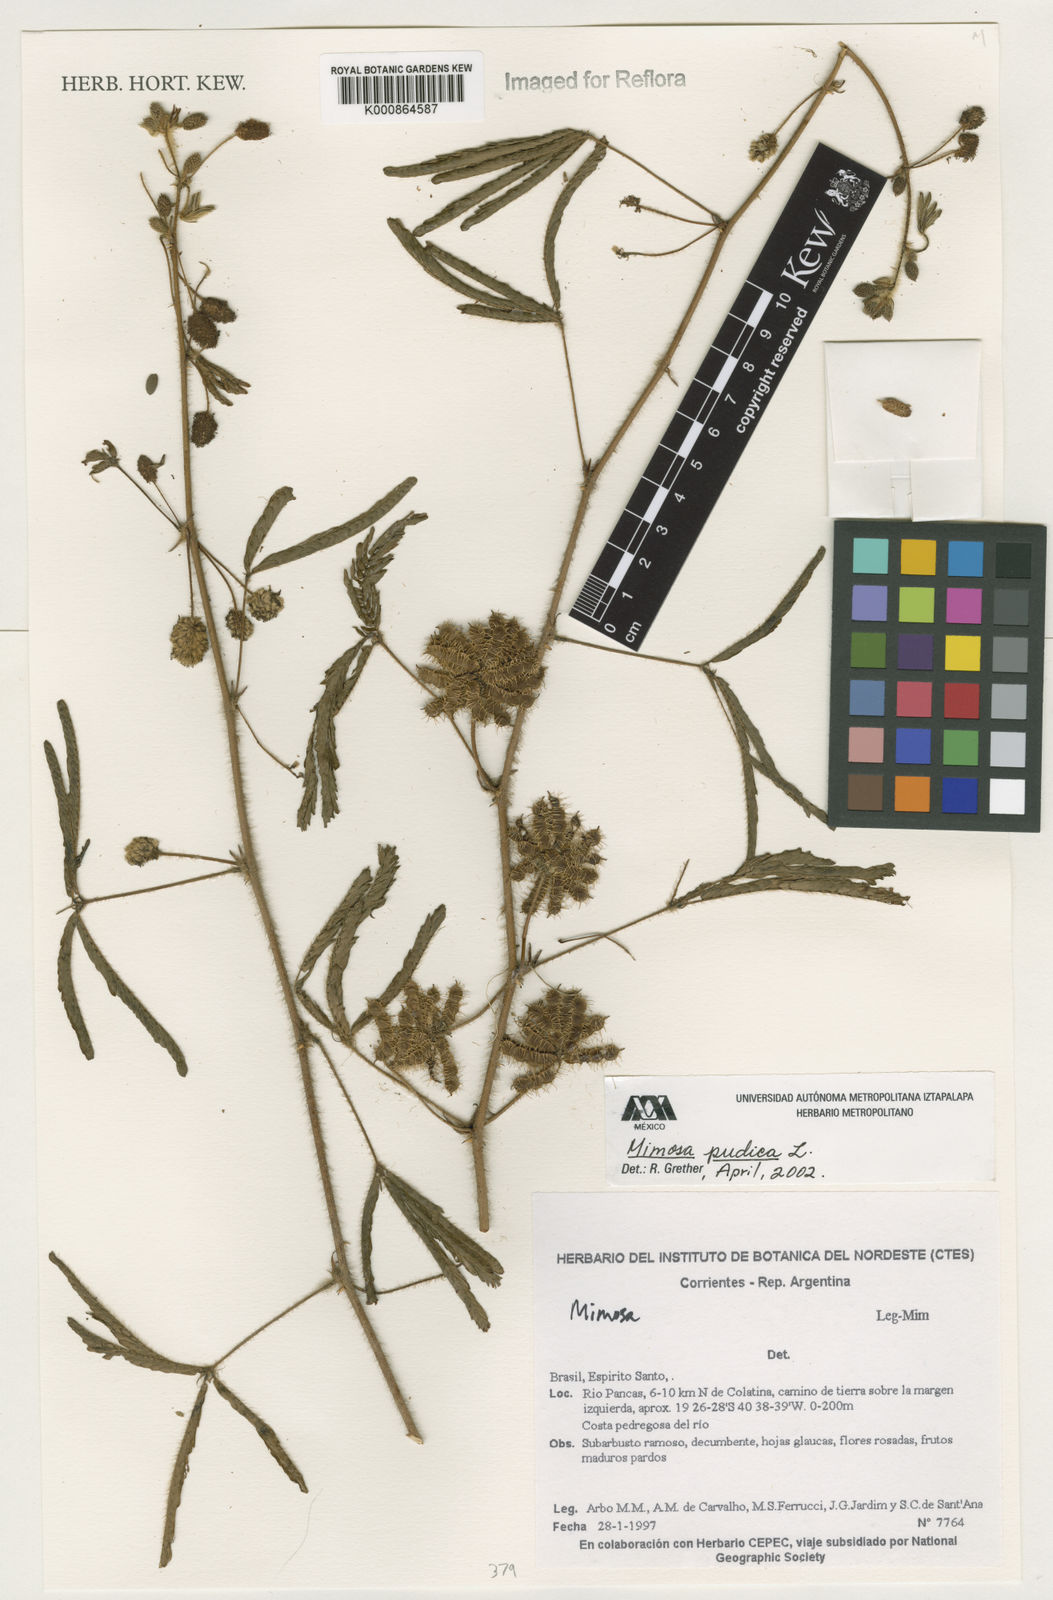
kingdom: Plantae
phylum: Tracheophyta
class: Magnoliopsida
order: Fabales
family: Fabaceae
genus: Mimosa
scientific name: Mimosa pudica
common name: Sensitive plant
